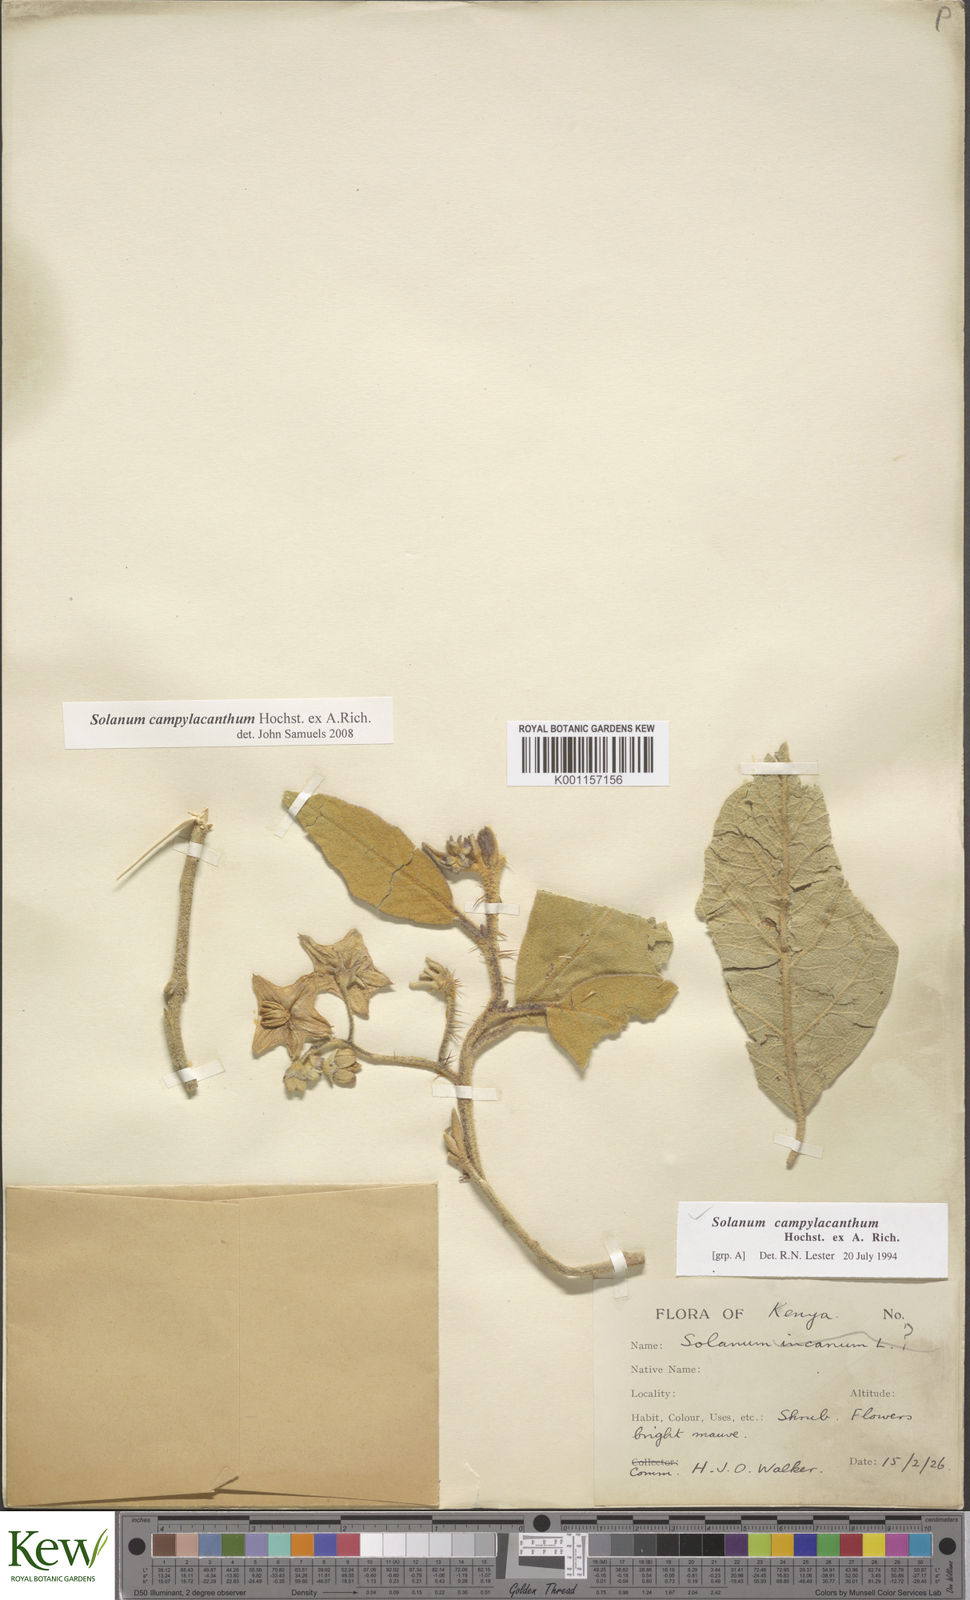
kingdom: Plantae
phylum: Tracheophyta
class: Magnoliopsida
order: Solanales
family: Solanaceae
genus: Solanum
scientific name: Solanum campylacanthum
